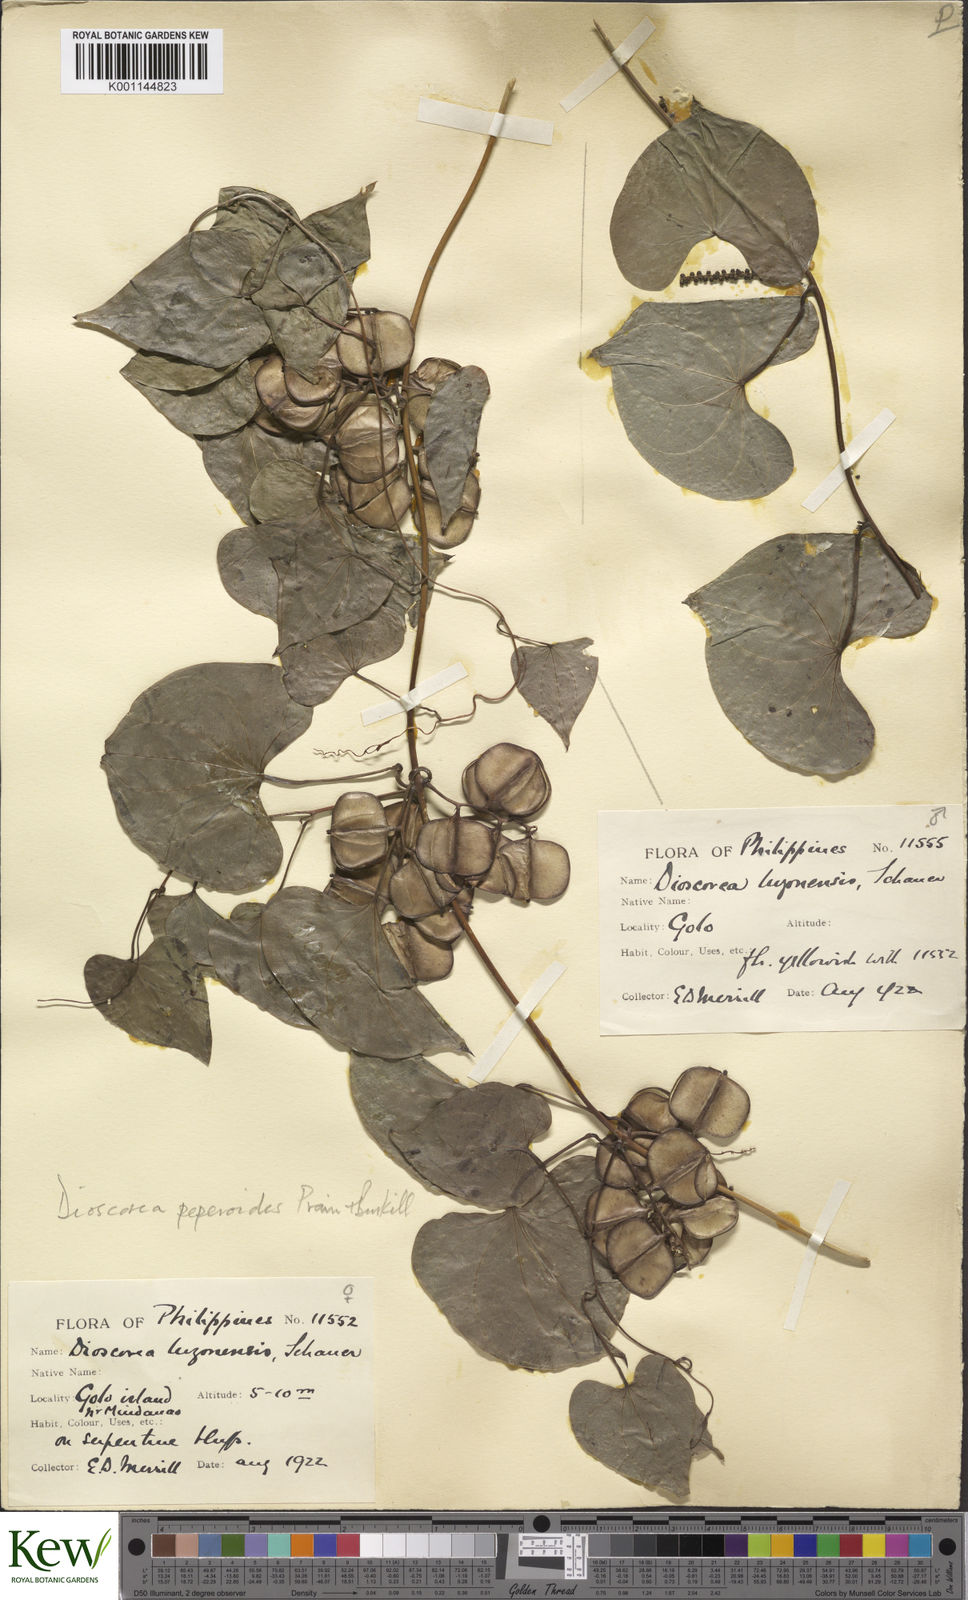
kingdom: Plantae
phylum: Tracheophyta
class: Liliopsida
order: Dioscoreales
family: Dioscoreaceae
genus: Dioscorea
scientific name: Dioscorea peperoides
